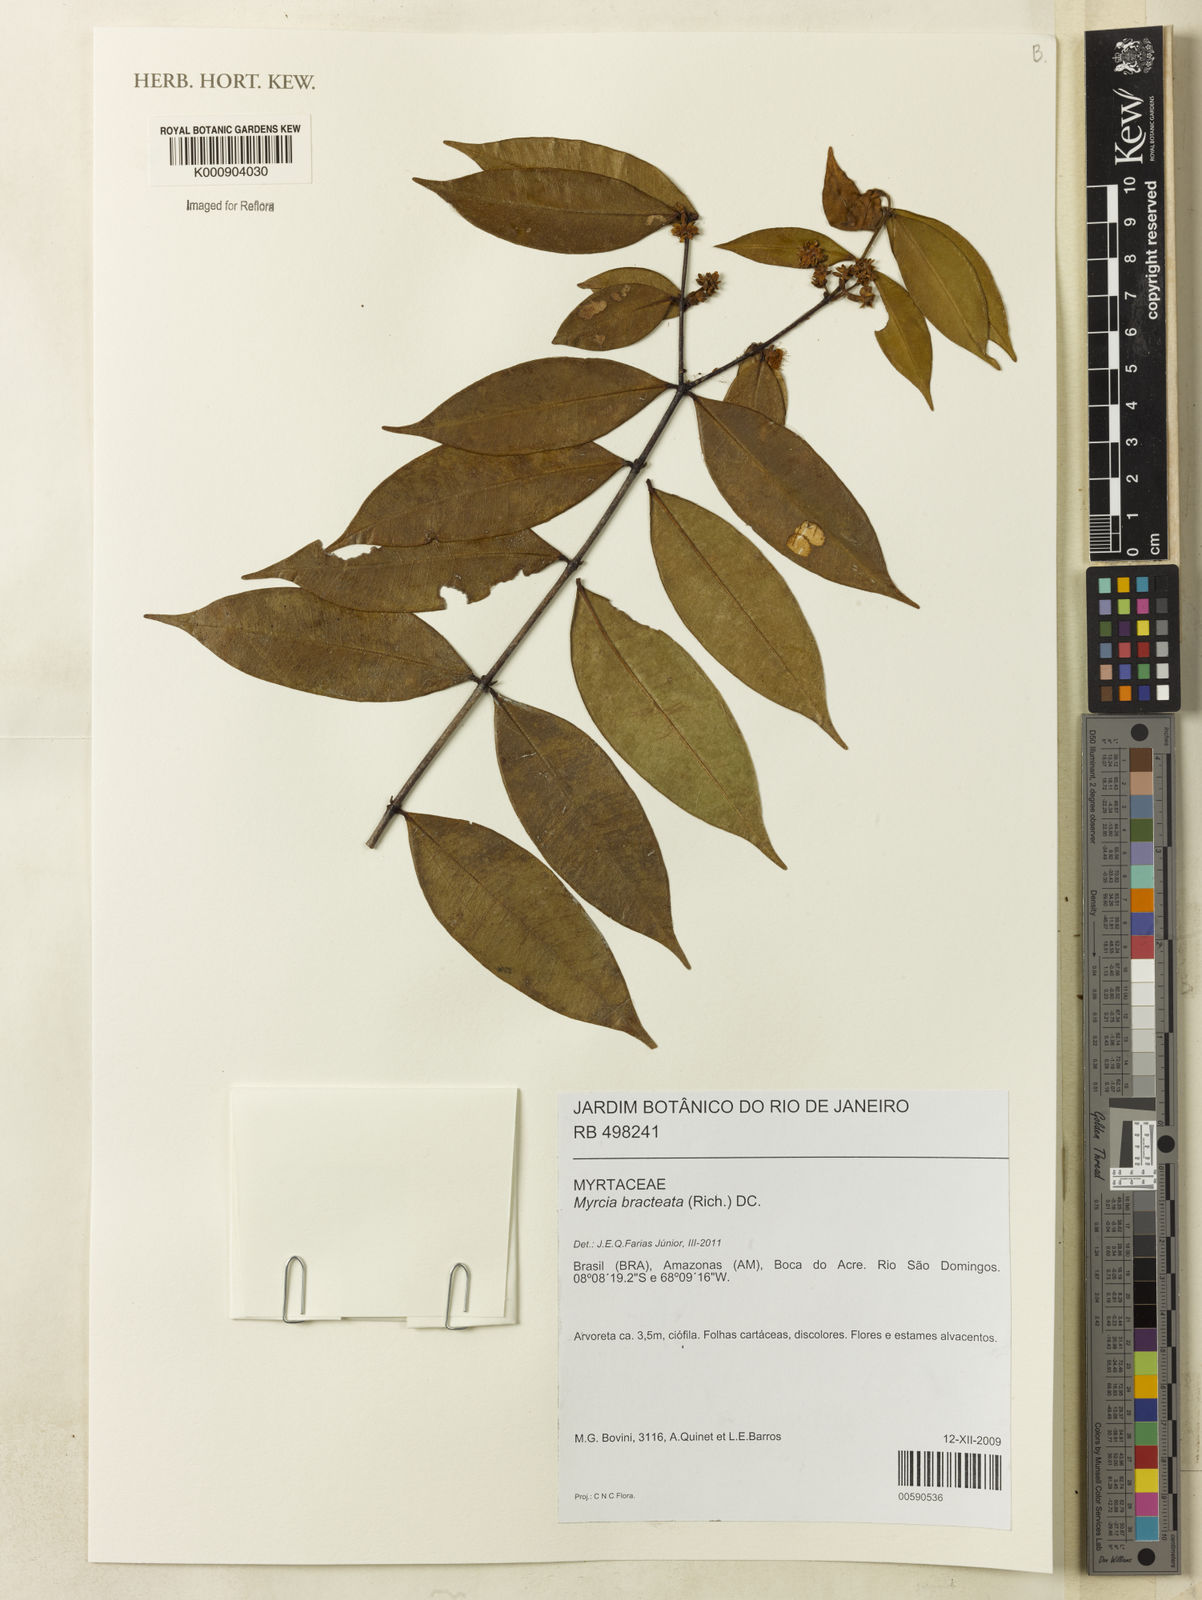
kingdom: Plantae
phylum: Tracheophyta
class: Magnoliopsida
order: Myrtales
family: Myrtaceae
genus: Myrcia
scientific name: Myrcia bracteata
